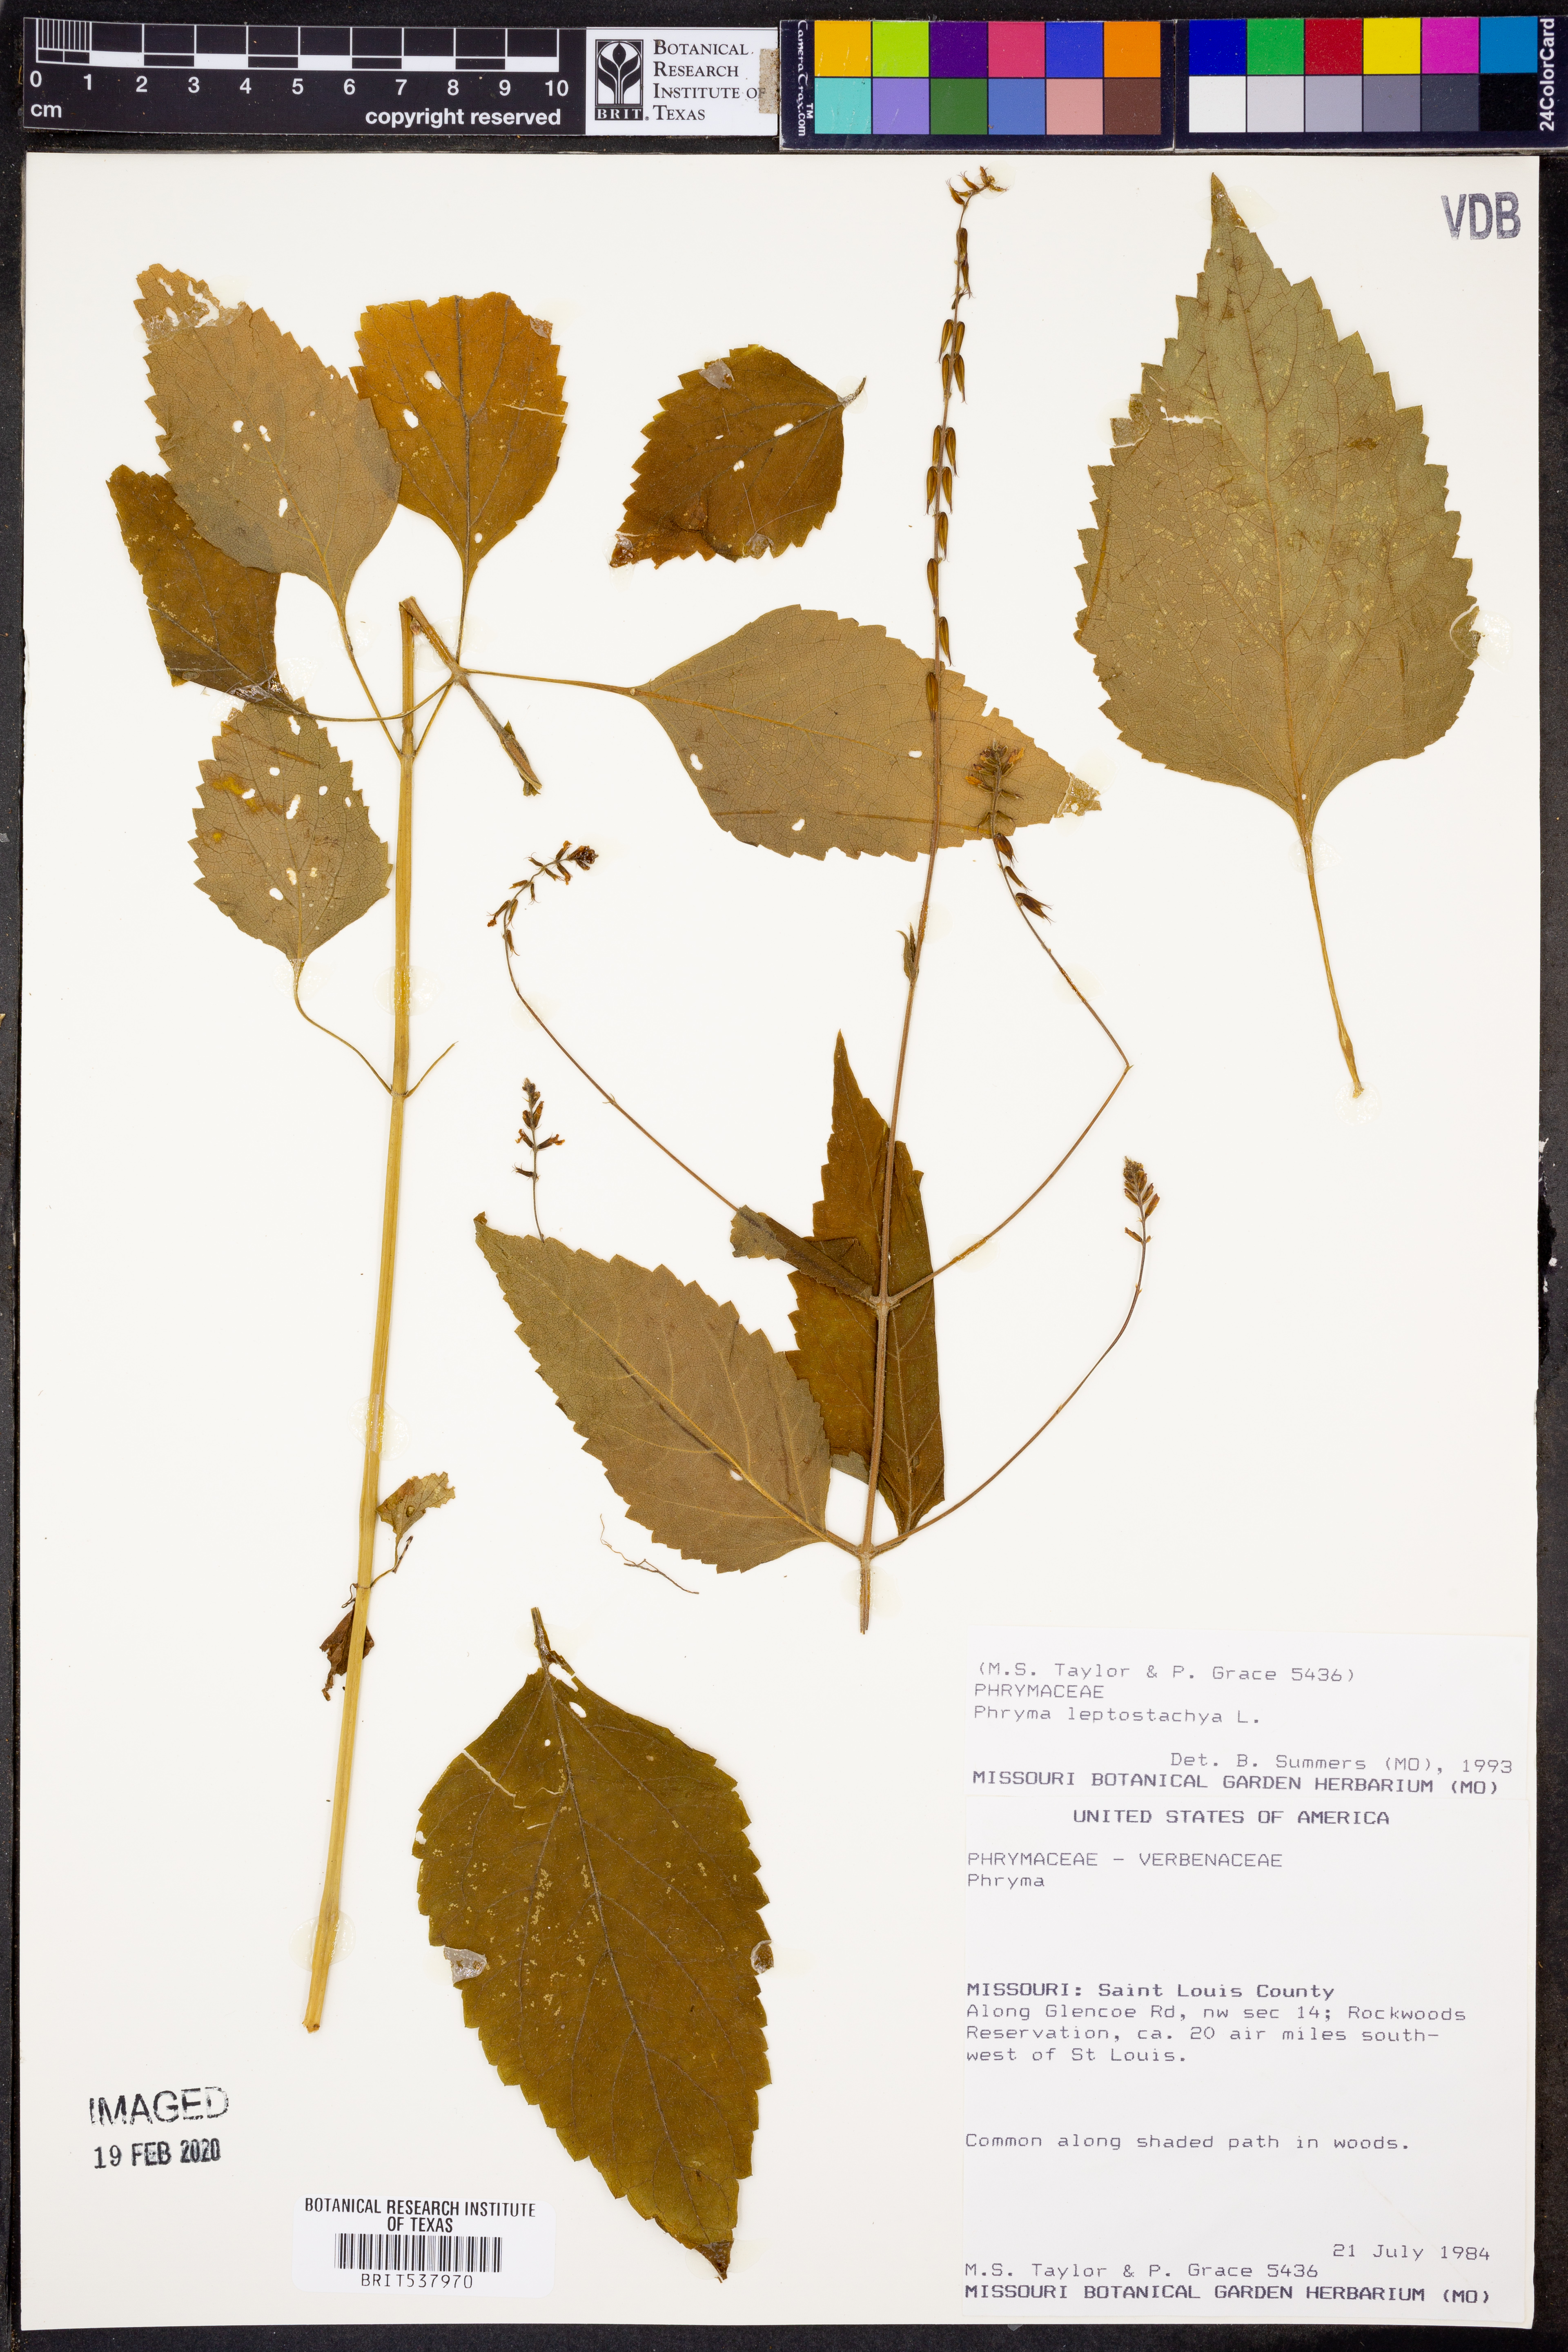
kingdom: Plantae
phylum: Tracheophyta
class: Magnoliopsida
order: Lamiales
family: Phrymaceae
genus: Phryma
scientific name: Phryma leptostachya
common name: American lopseed
